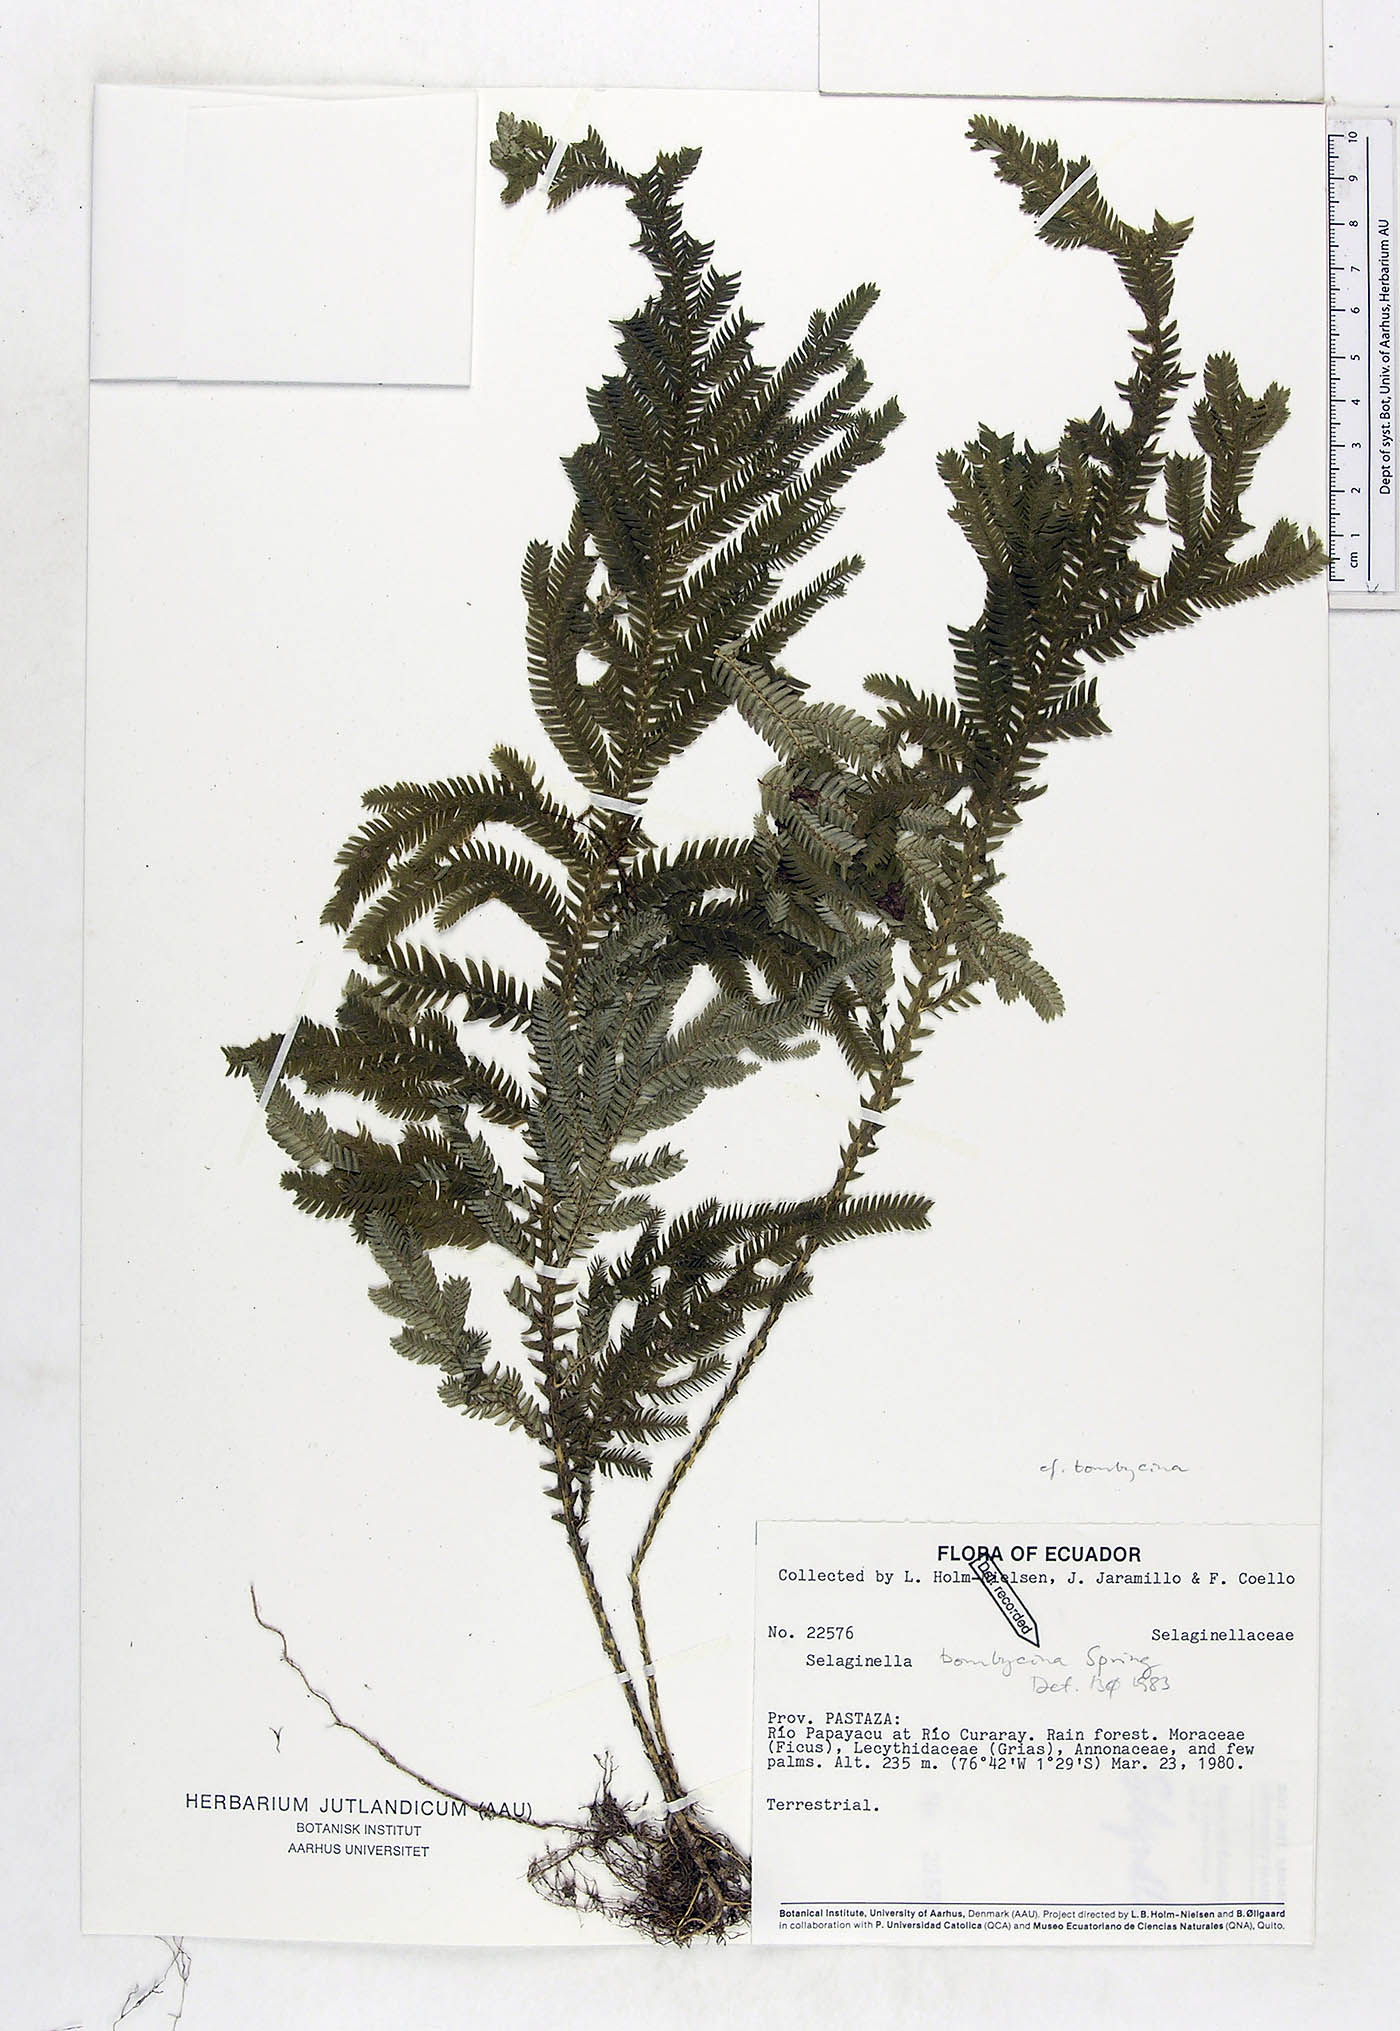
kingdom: Plantae
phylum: Tracheophyta
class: Lycopodiopsida
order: Selaginellales
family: Selaginellaceae
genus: Selaginella
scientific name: Selaginella bombycina
